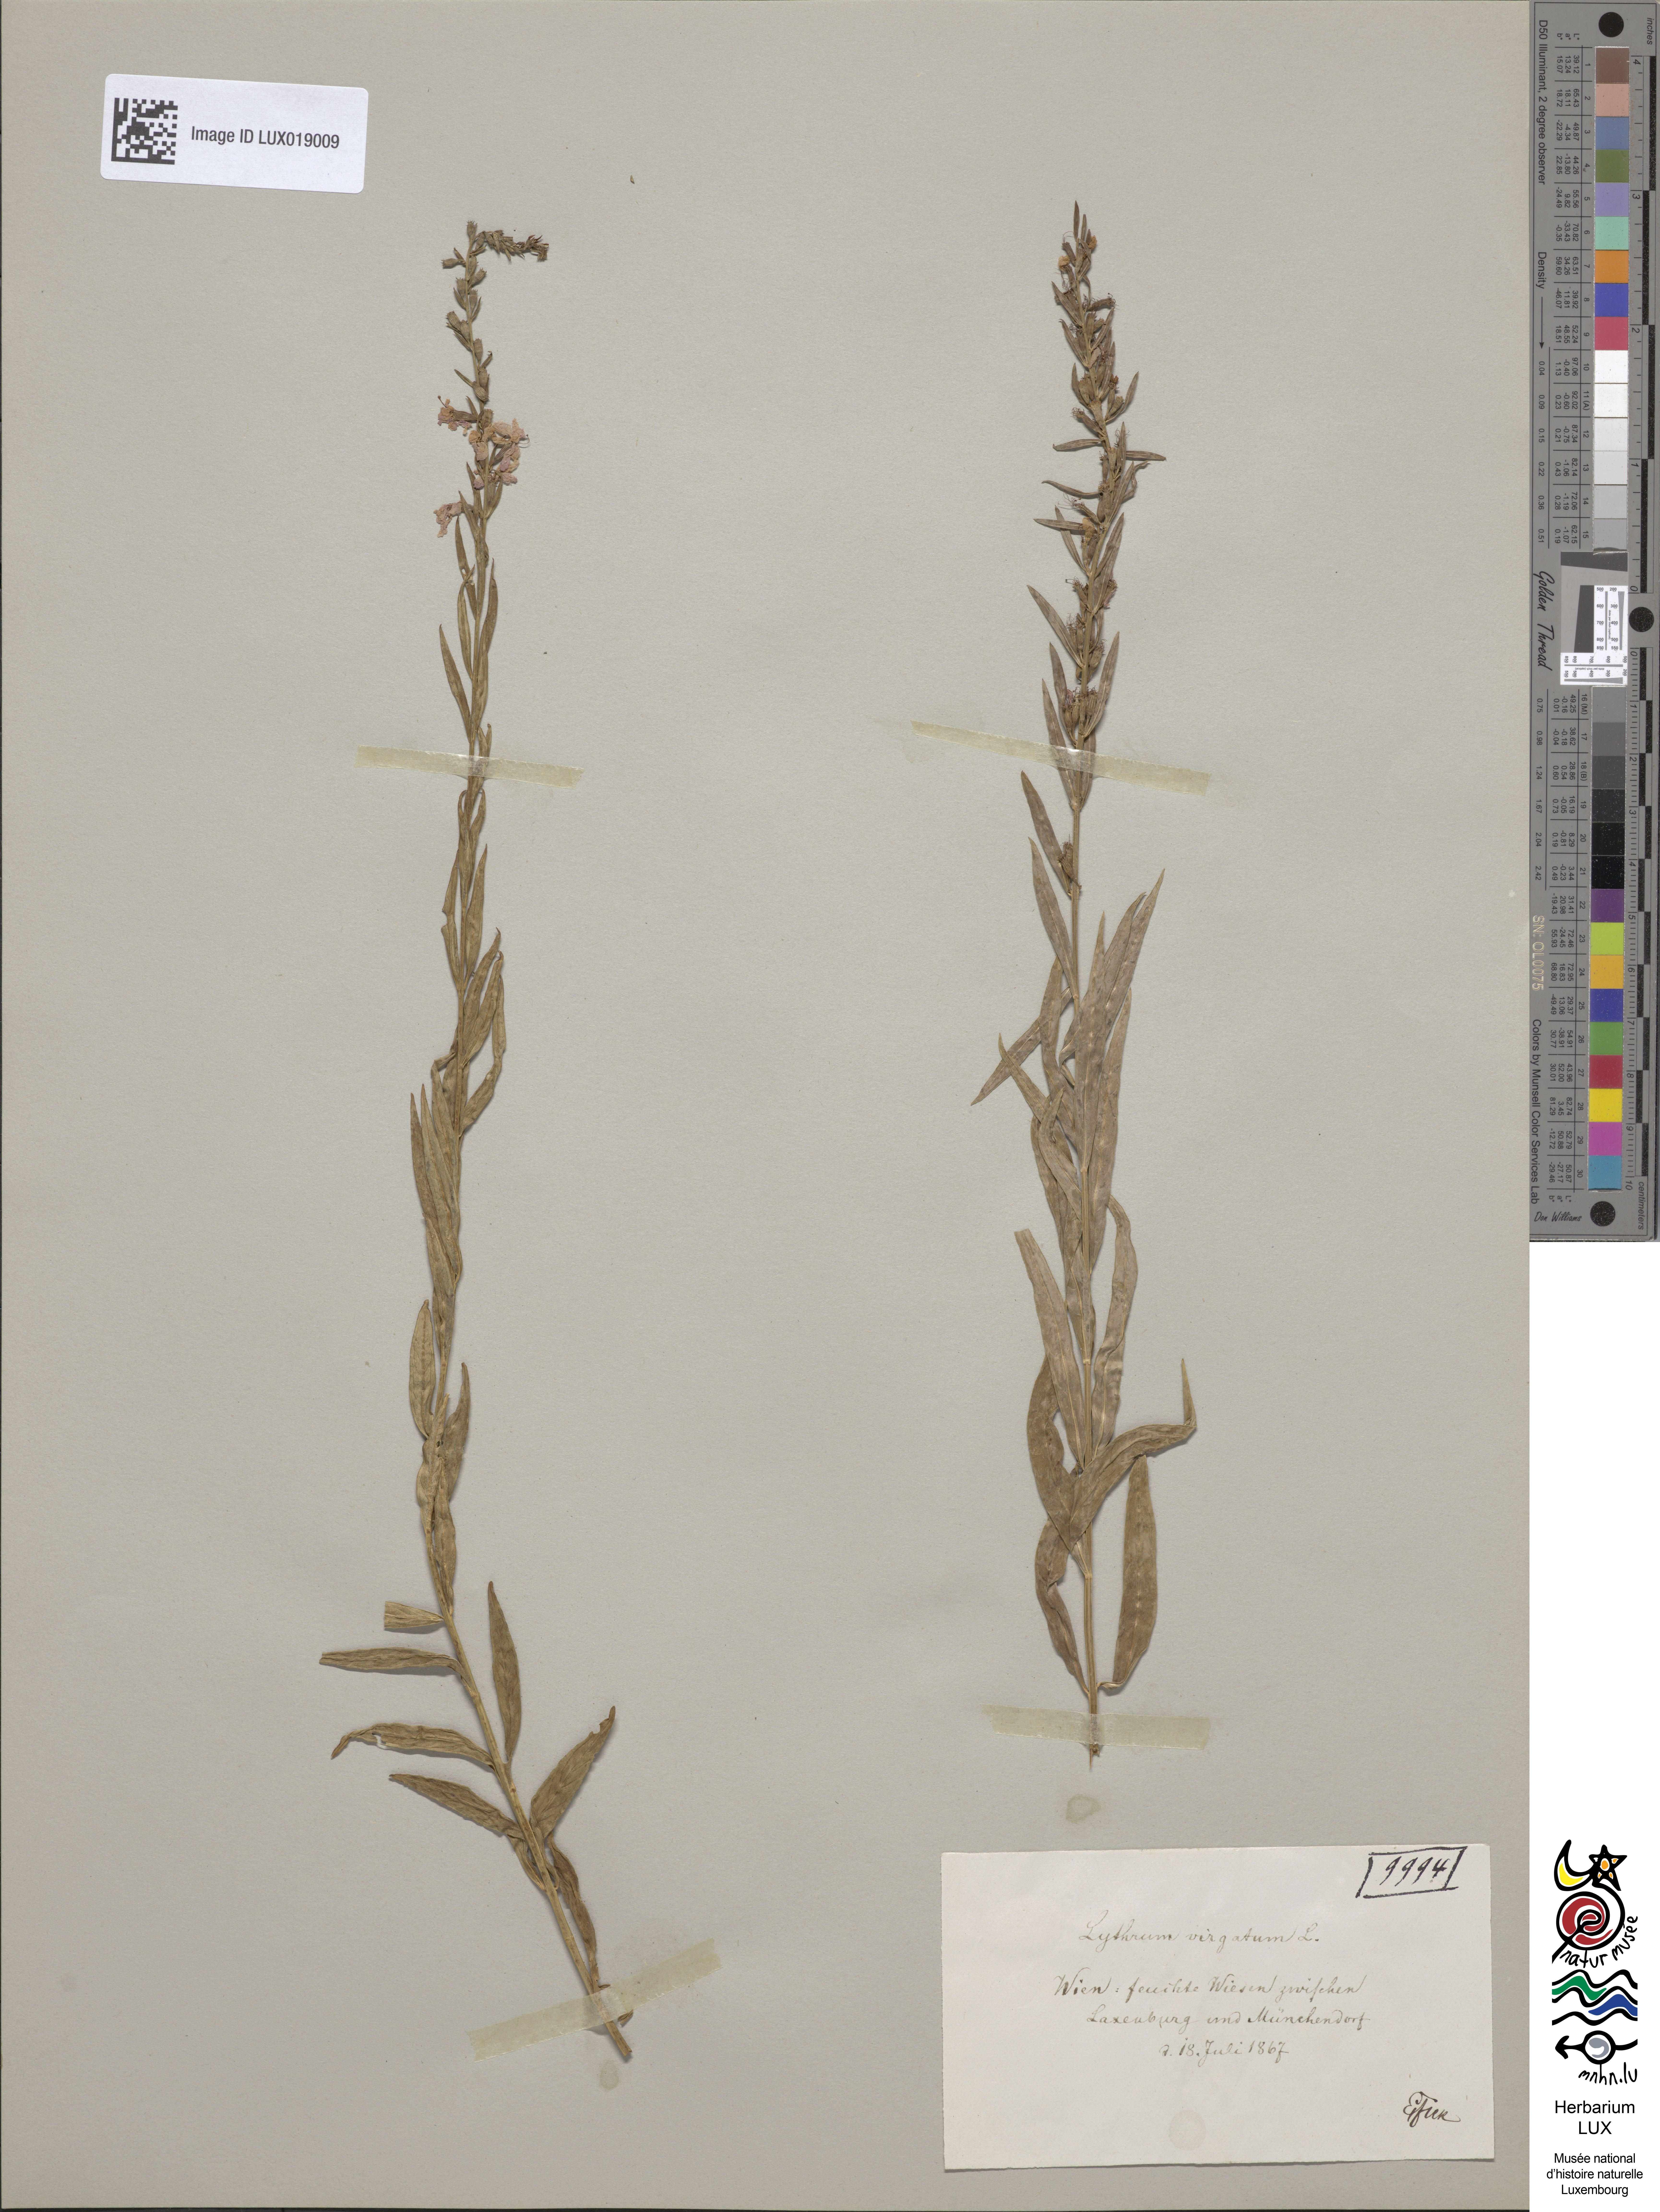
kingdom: Plantae
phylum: Tracheophyta
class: Magnoliopsida
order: Myrtales
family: Lythraceae
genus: Lythrum
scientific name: Lythrum virgatum
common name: European wand loosestrife
